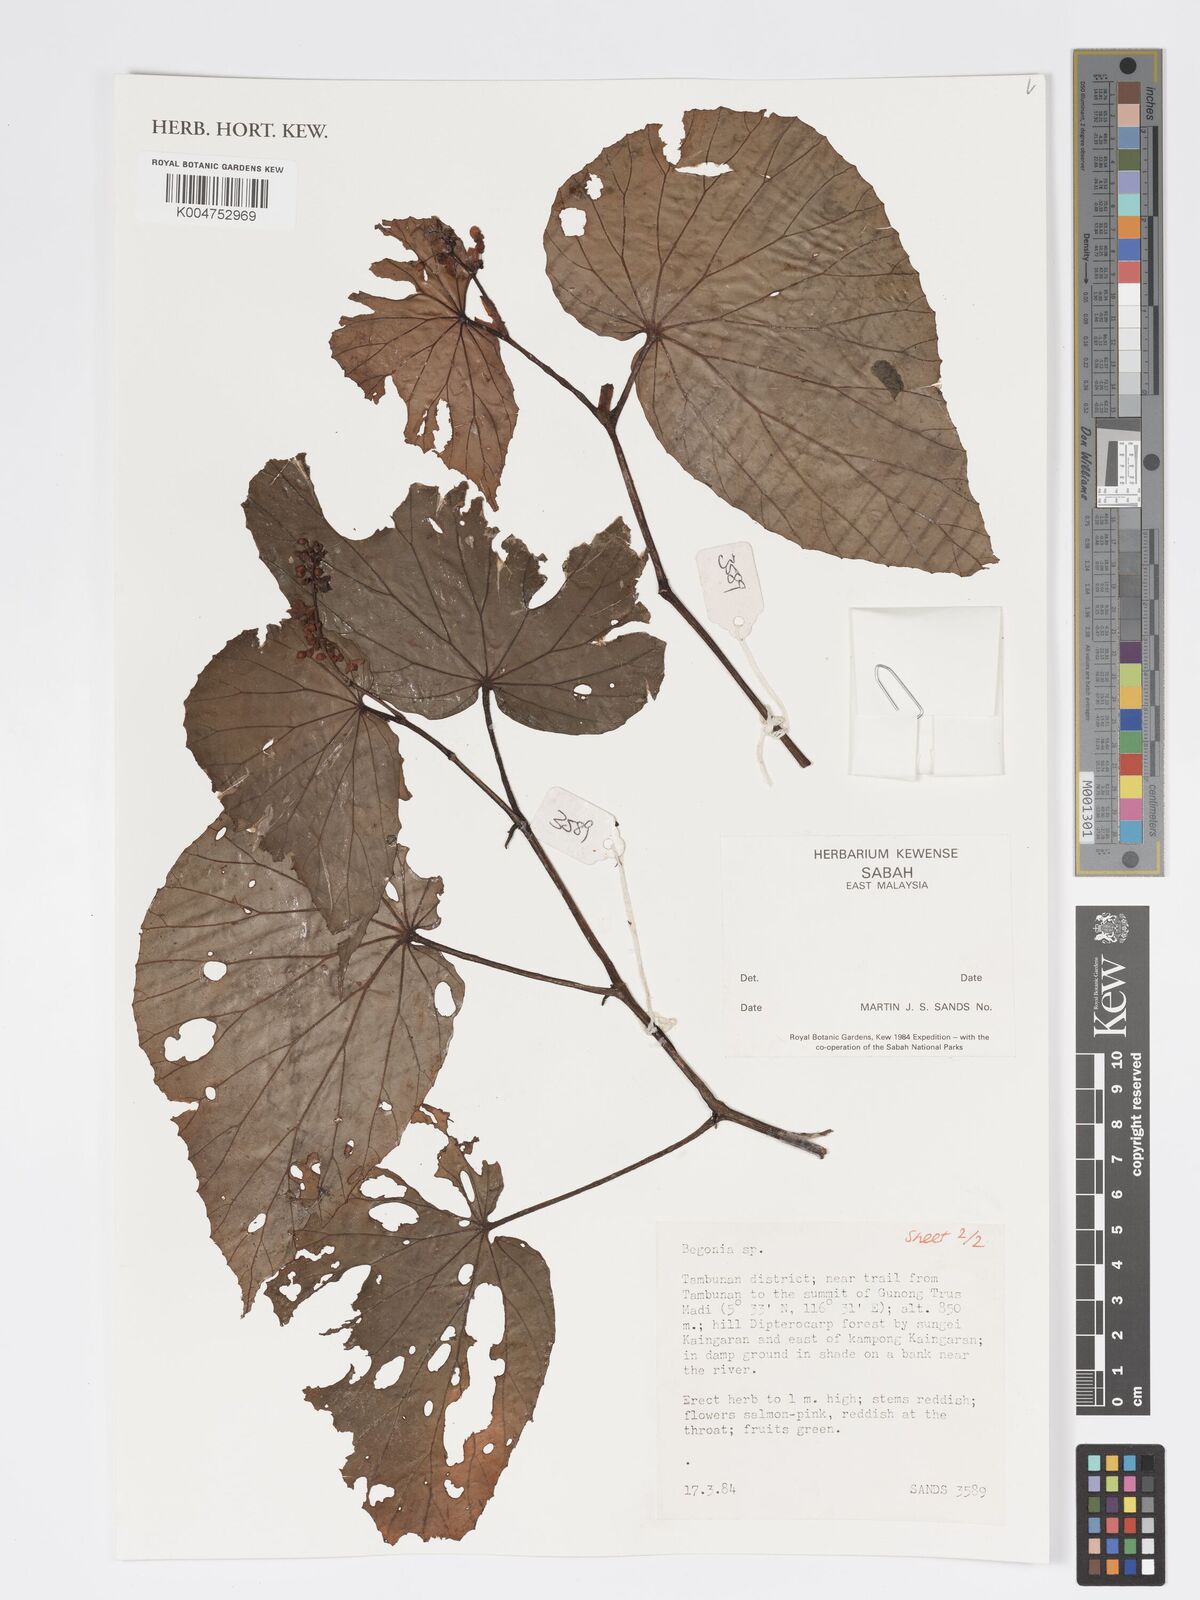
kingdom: Plantae
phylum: Tracheophyta
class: Magnoliopsida
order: Cucurbitales
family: Begoniaceae
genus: Begonia
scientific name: Begonia
